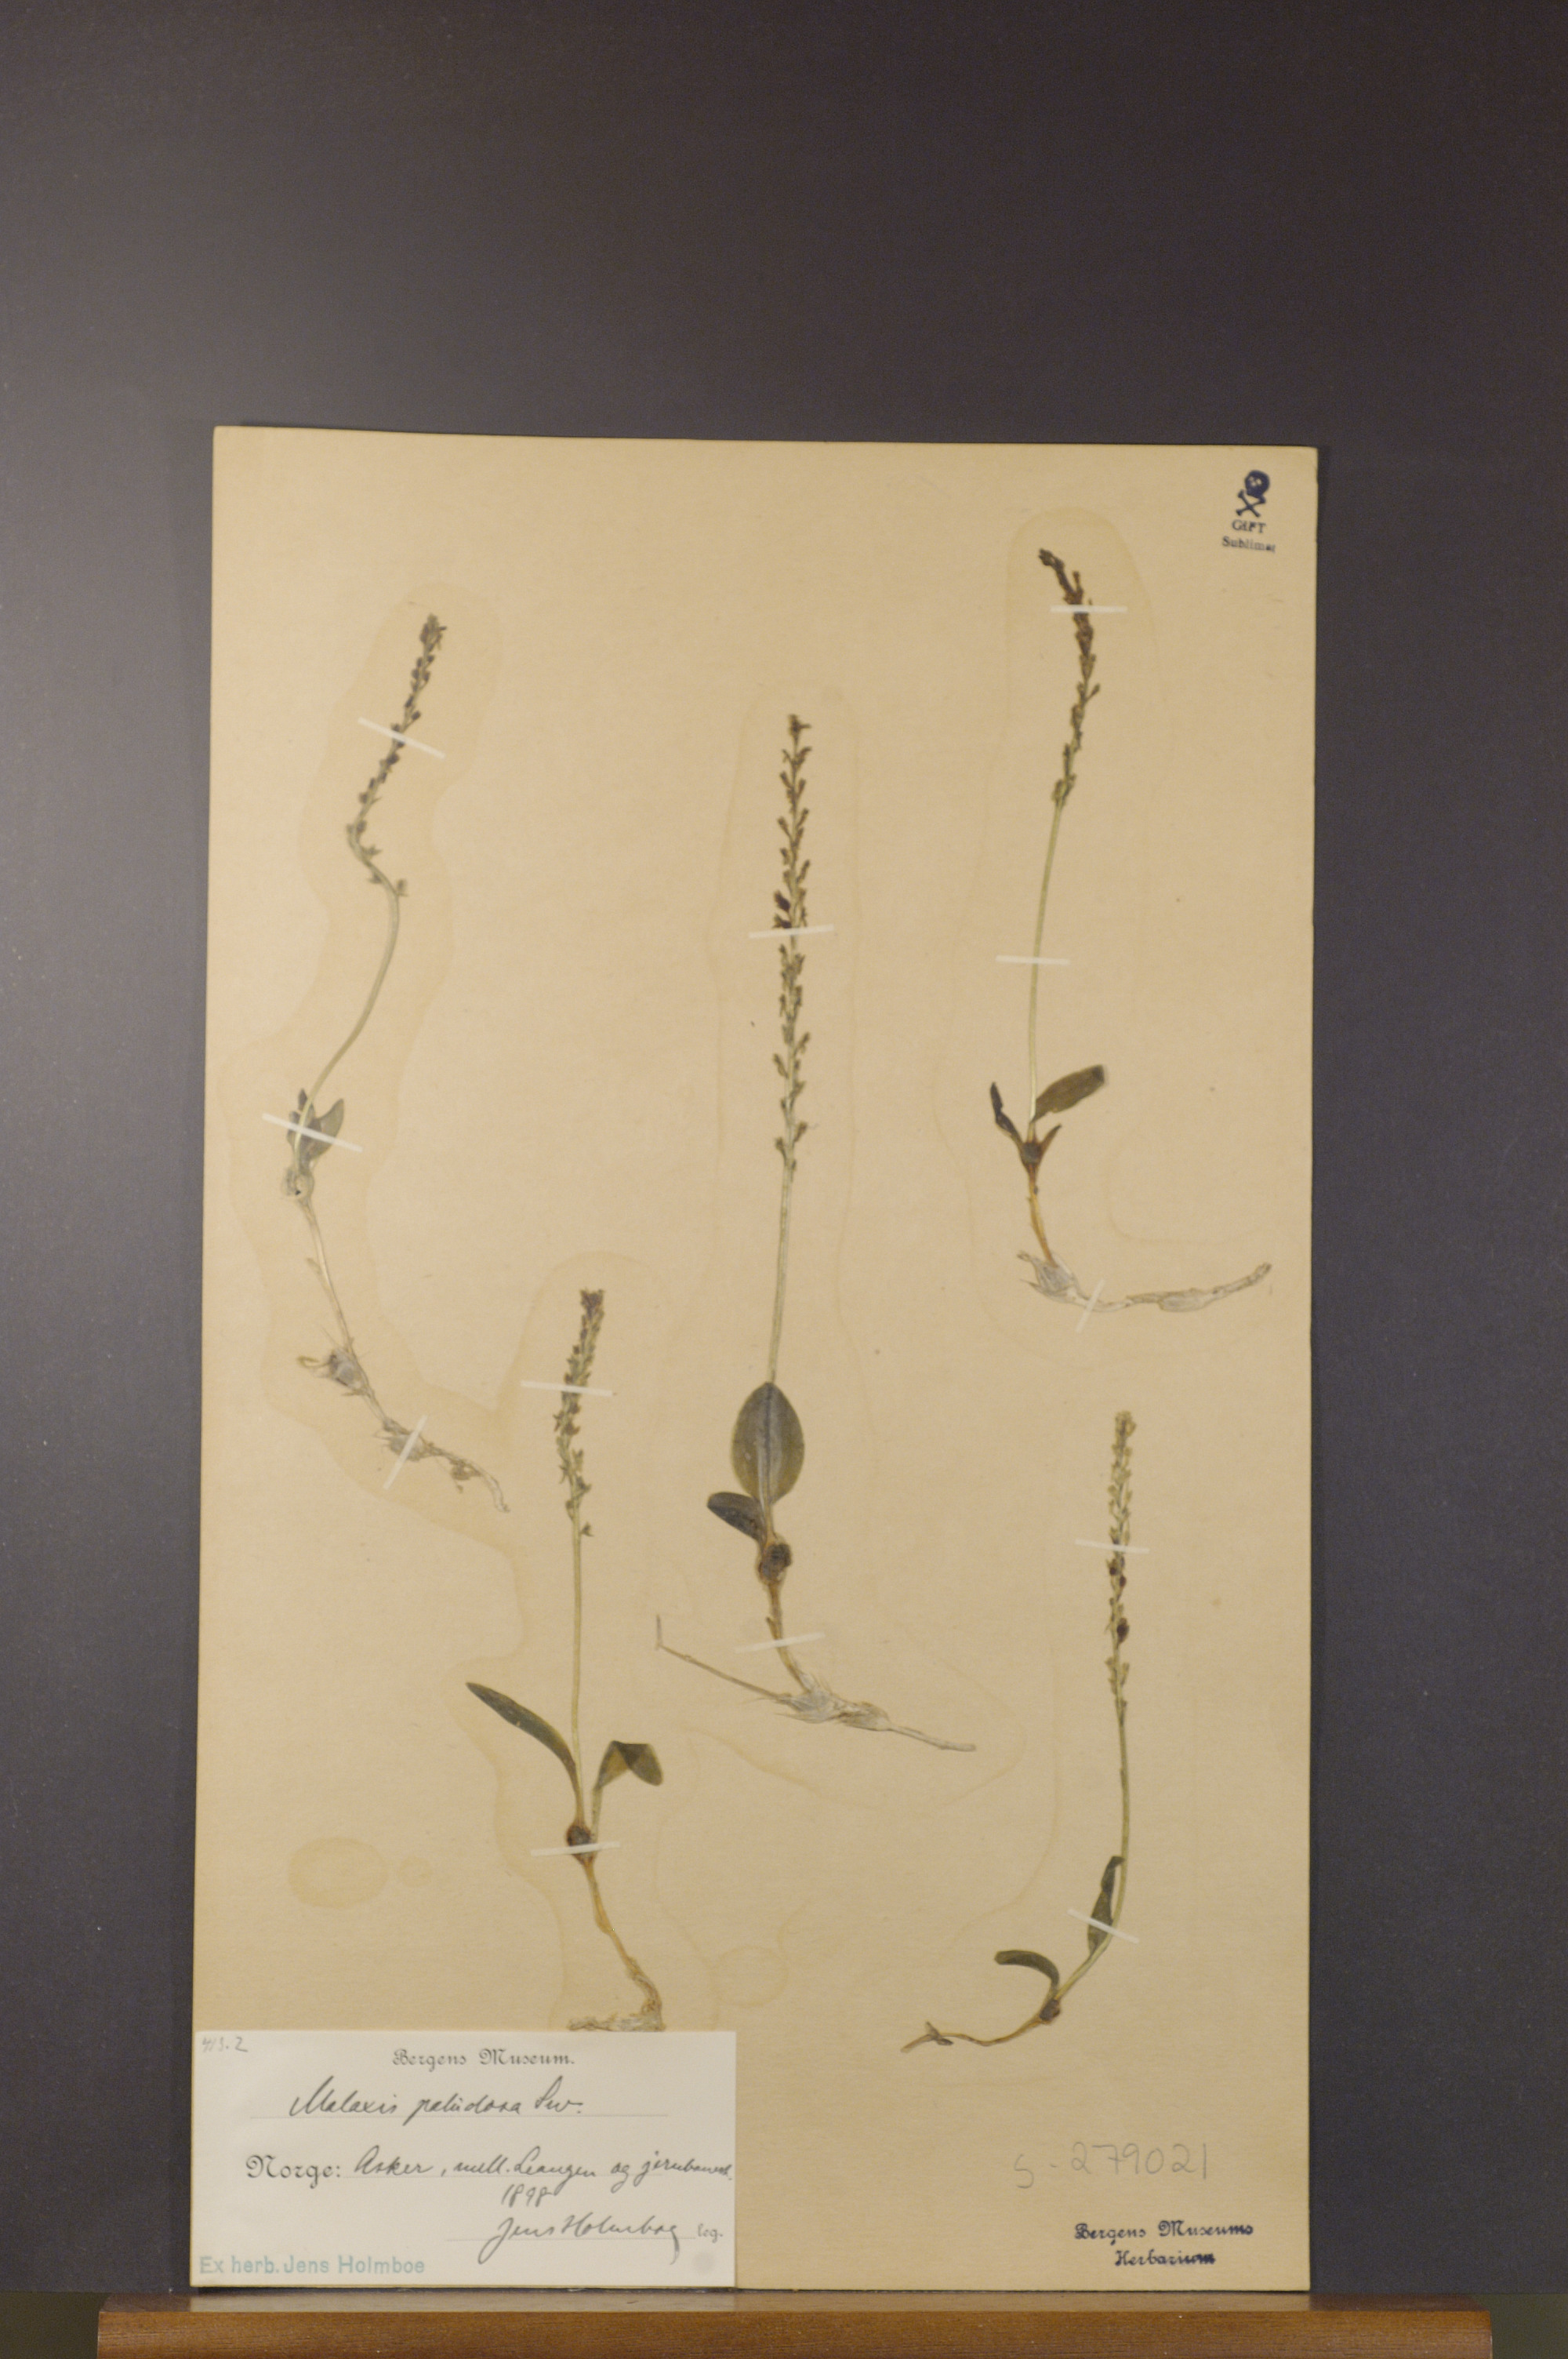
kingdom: Plantae
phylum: Tracheophyta
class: Liliopsida
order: Asparagales
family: Orchidaceae
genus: Hammarbya
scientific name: Hammarbya paludosa
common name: Bog orchid
